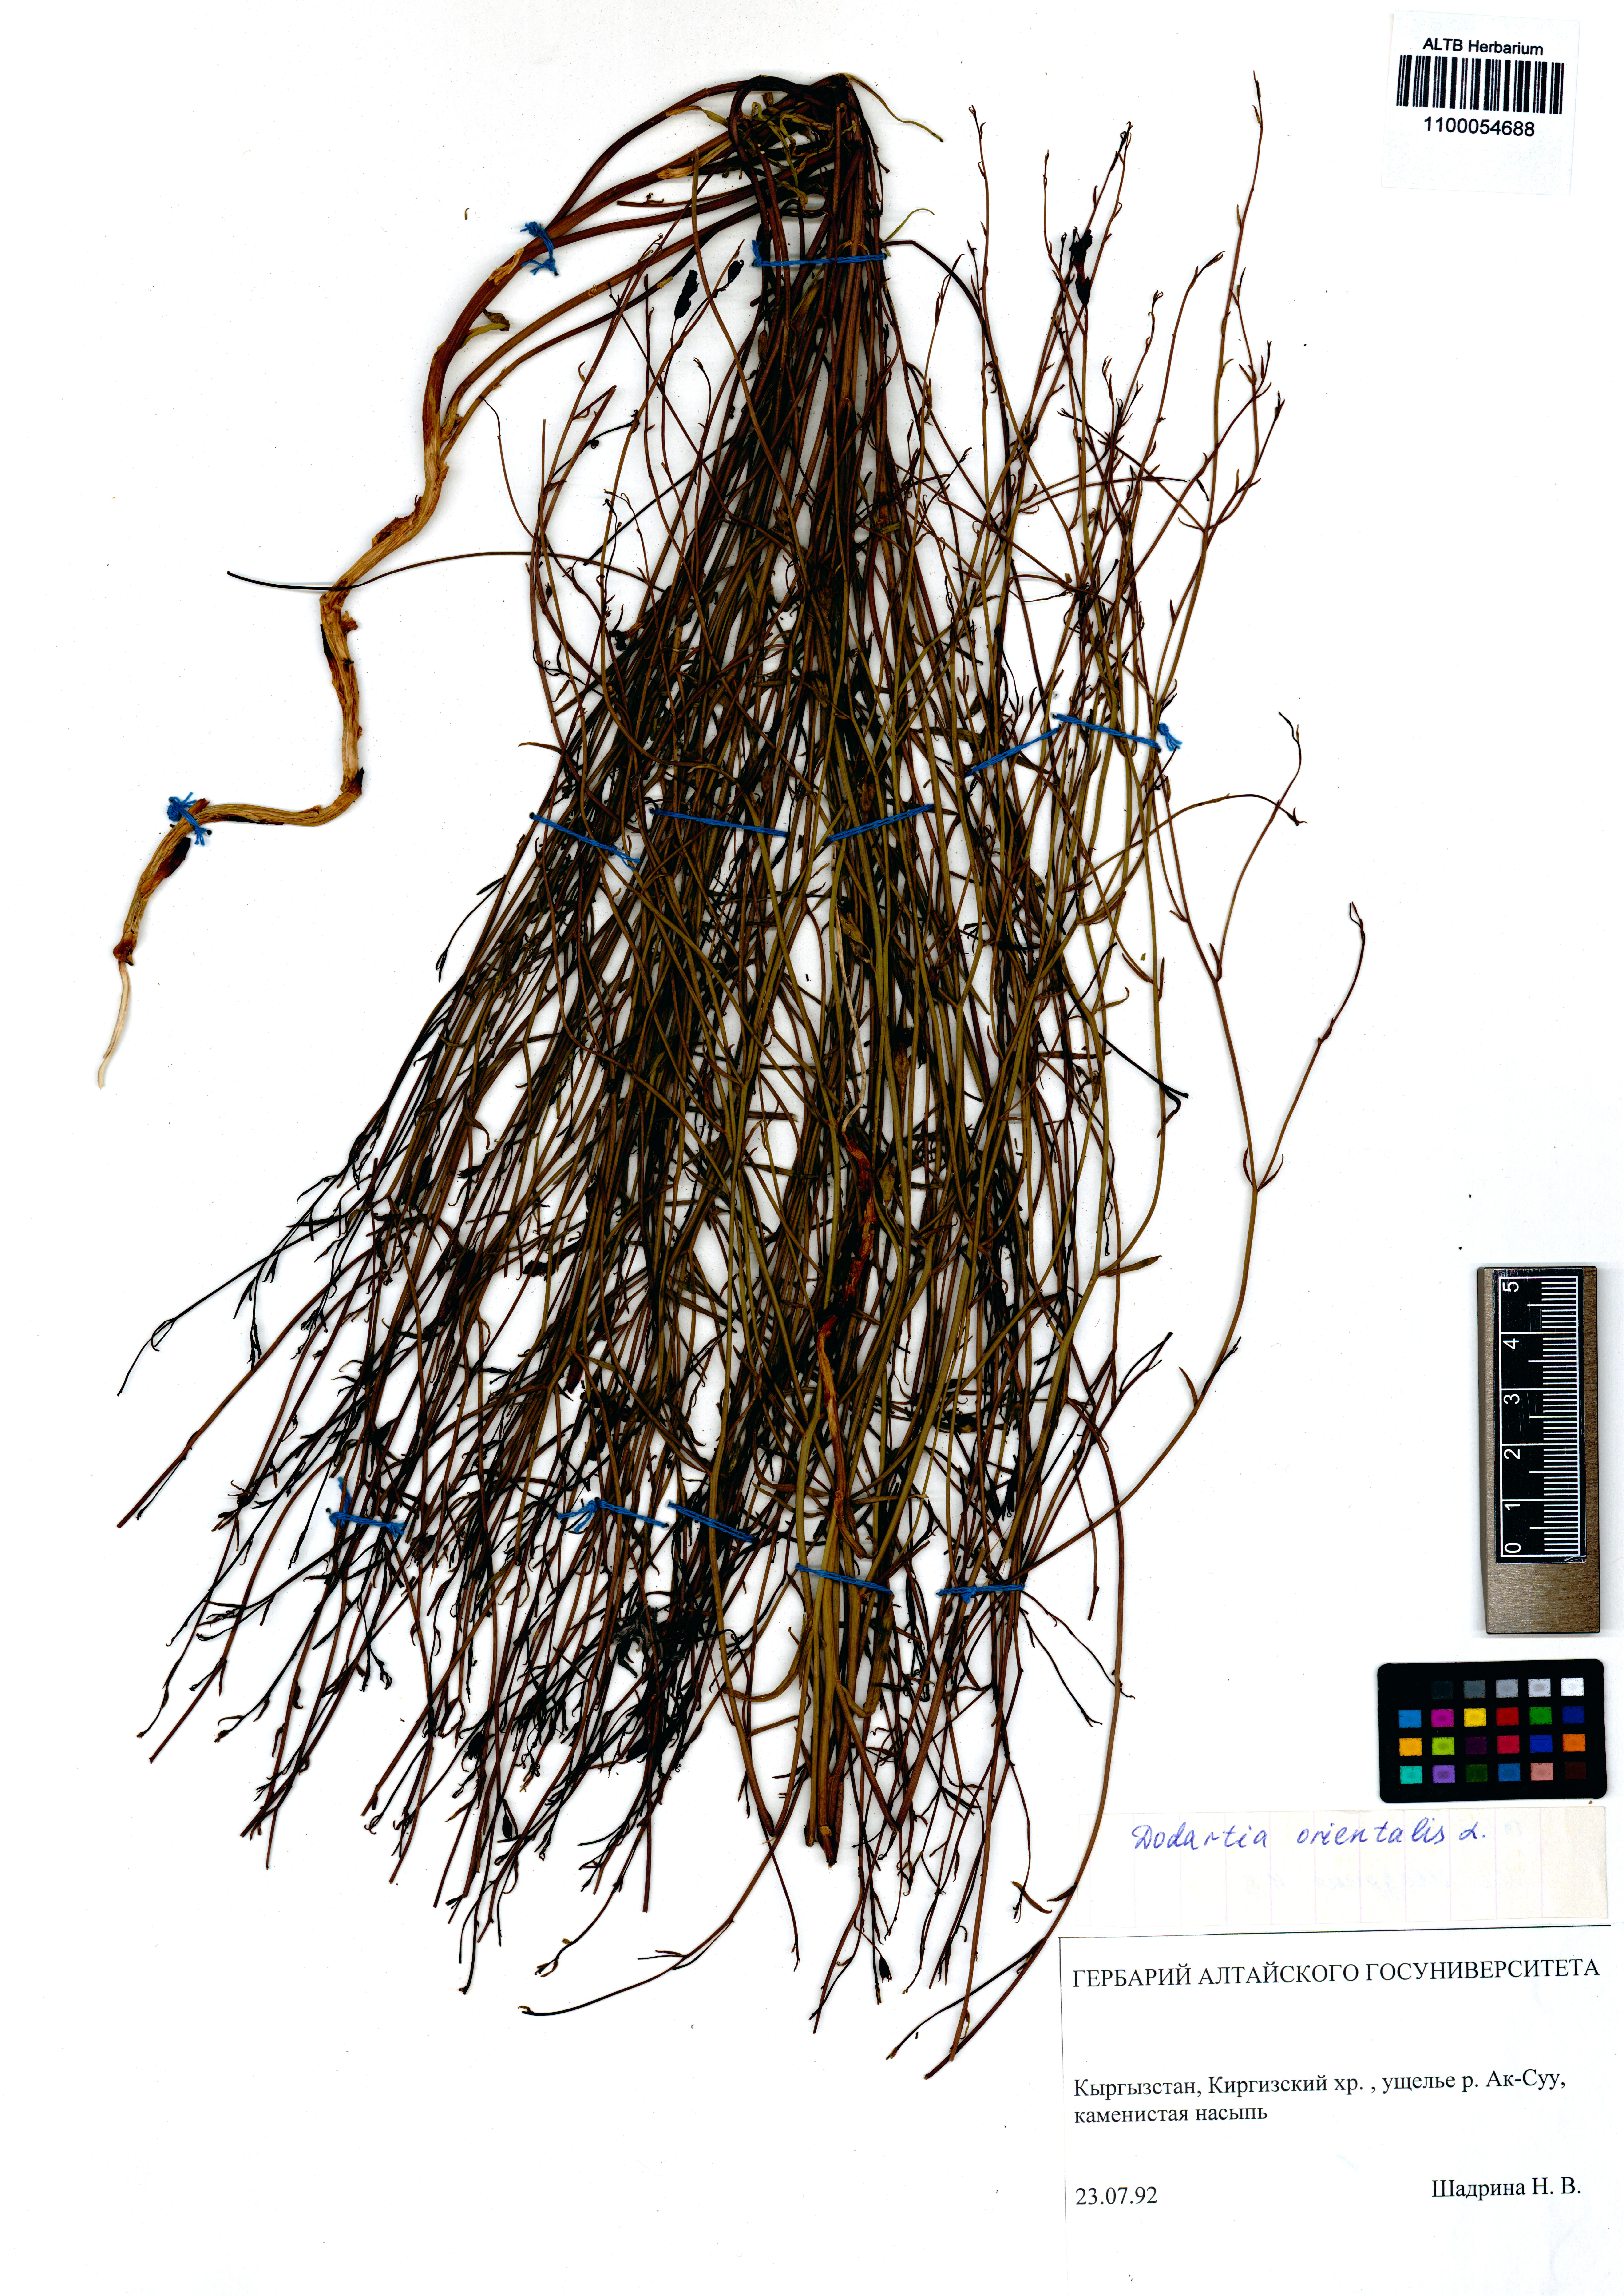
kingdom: Plantae
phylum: Tracheophyta
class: Magnoliopsida
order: Lamiales
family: Mazaceae
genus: Dodartia
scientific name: Dodartia orientalis
